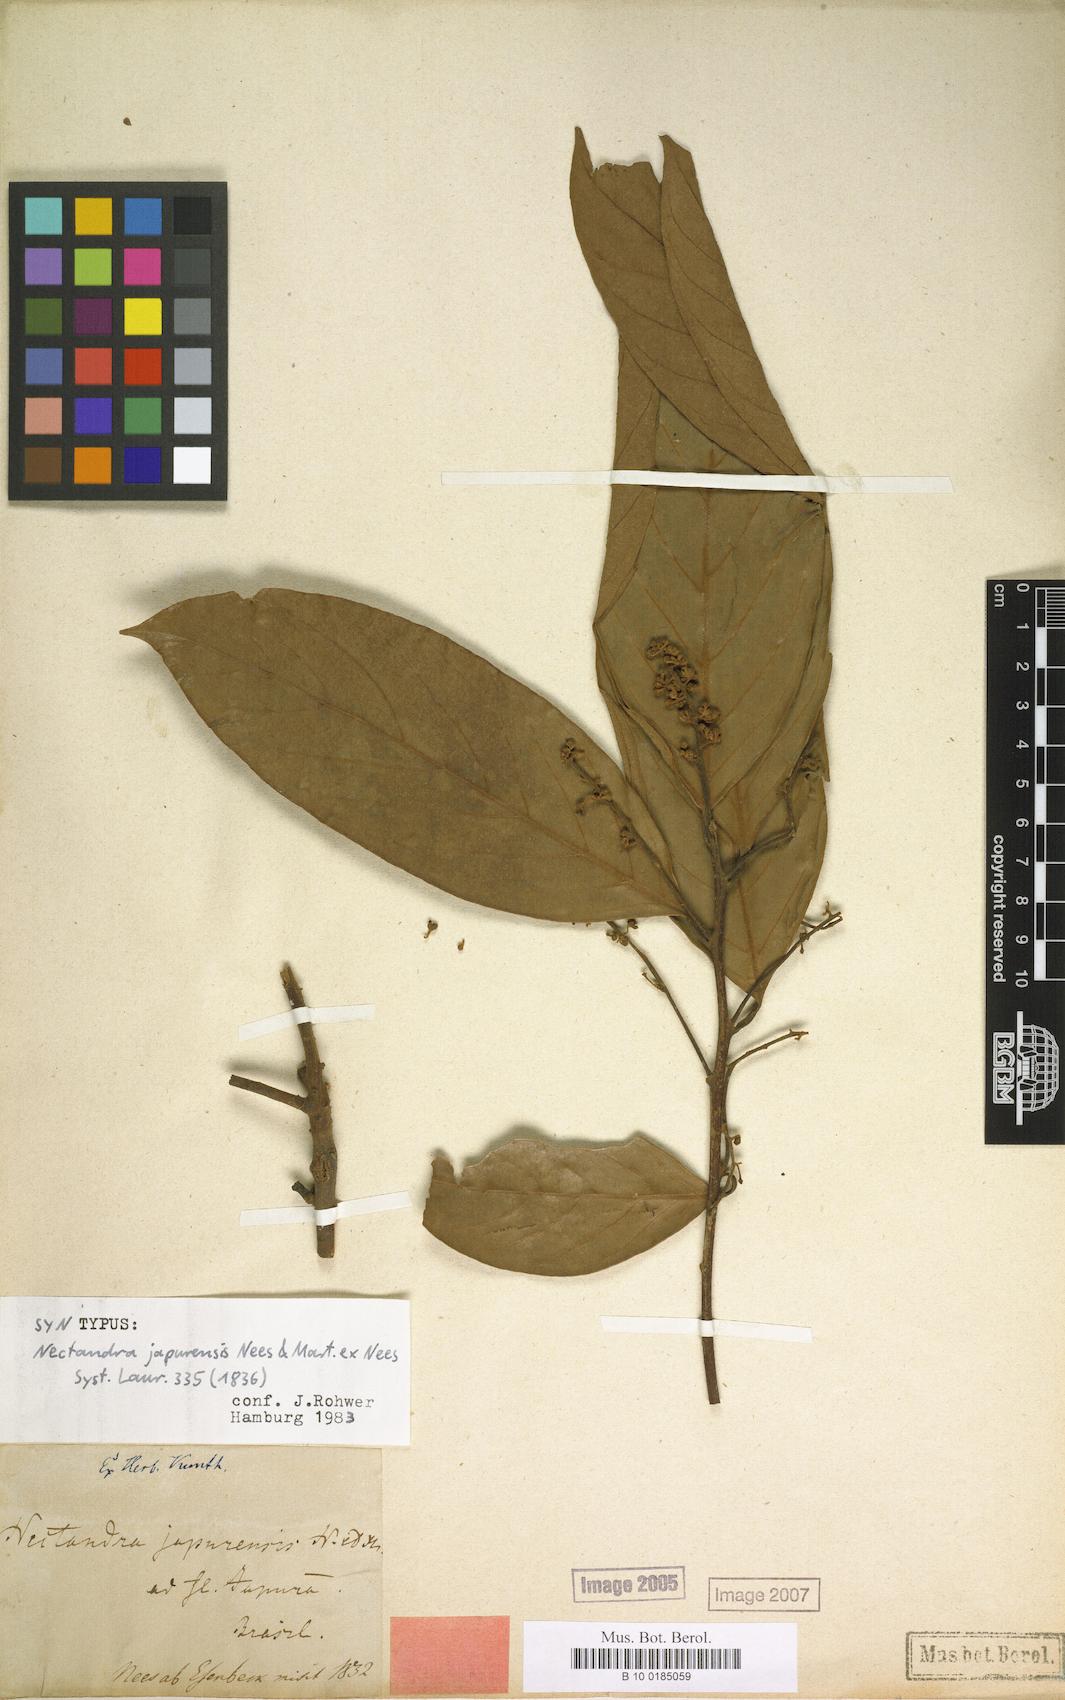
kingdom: Plantae
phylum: Tracheophyta
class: Magnoliopsida
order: Laurales
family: Lauraceae
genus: Nectandra
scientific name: Nectandra japurensis
